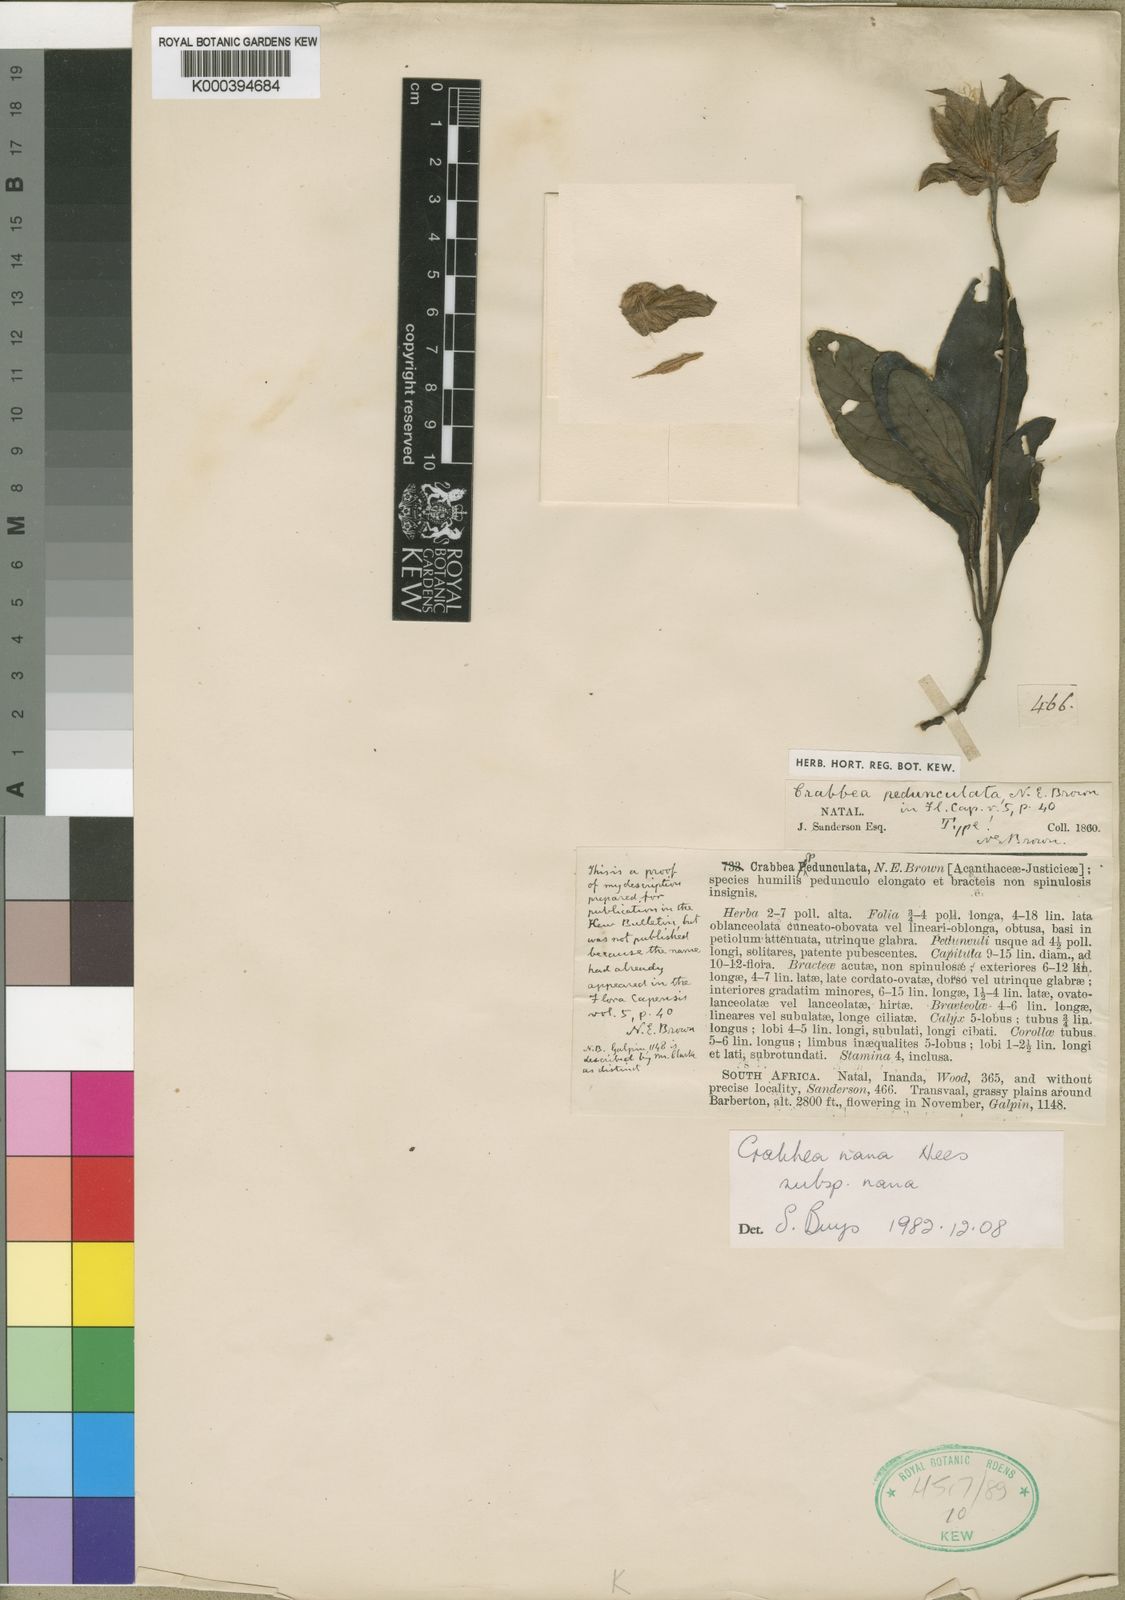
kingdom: Plantae
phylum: Tracheophyta
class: Magnoliopsida
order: Lamiales
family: Acanthaceae
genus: Crabbea
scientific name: Crabbea nana
